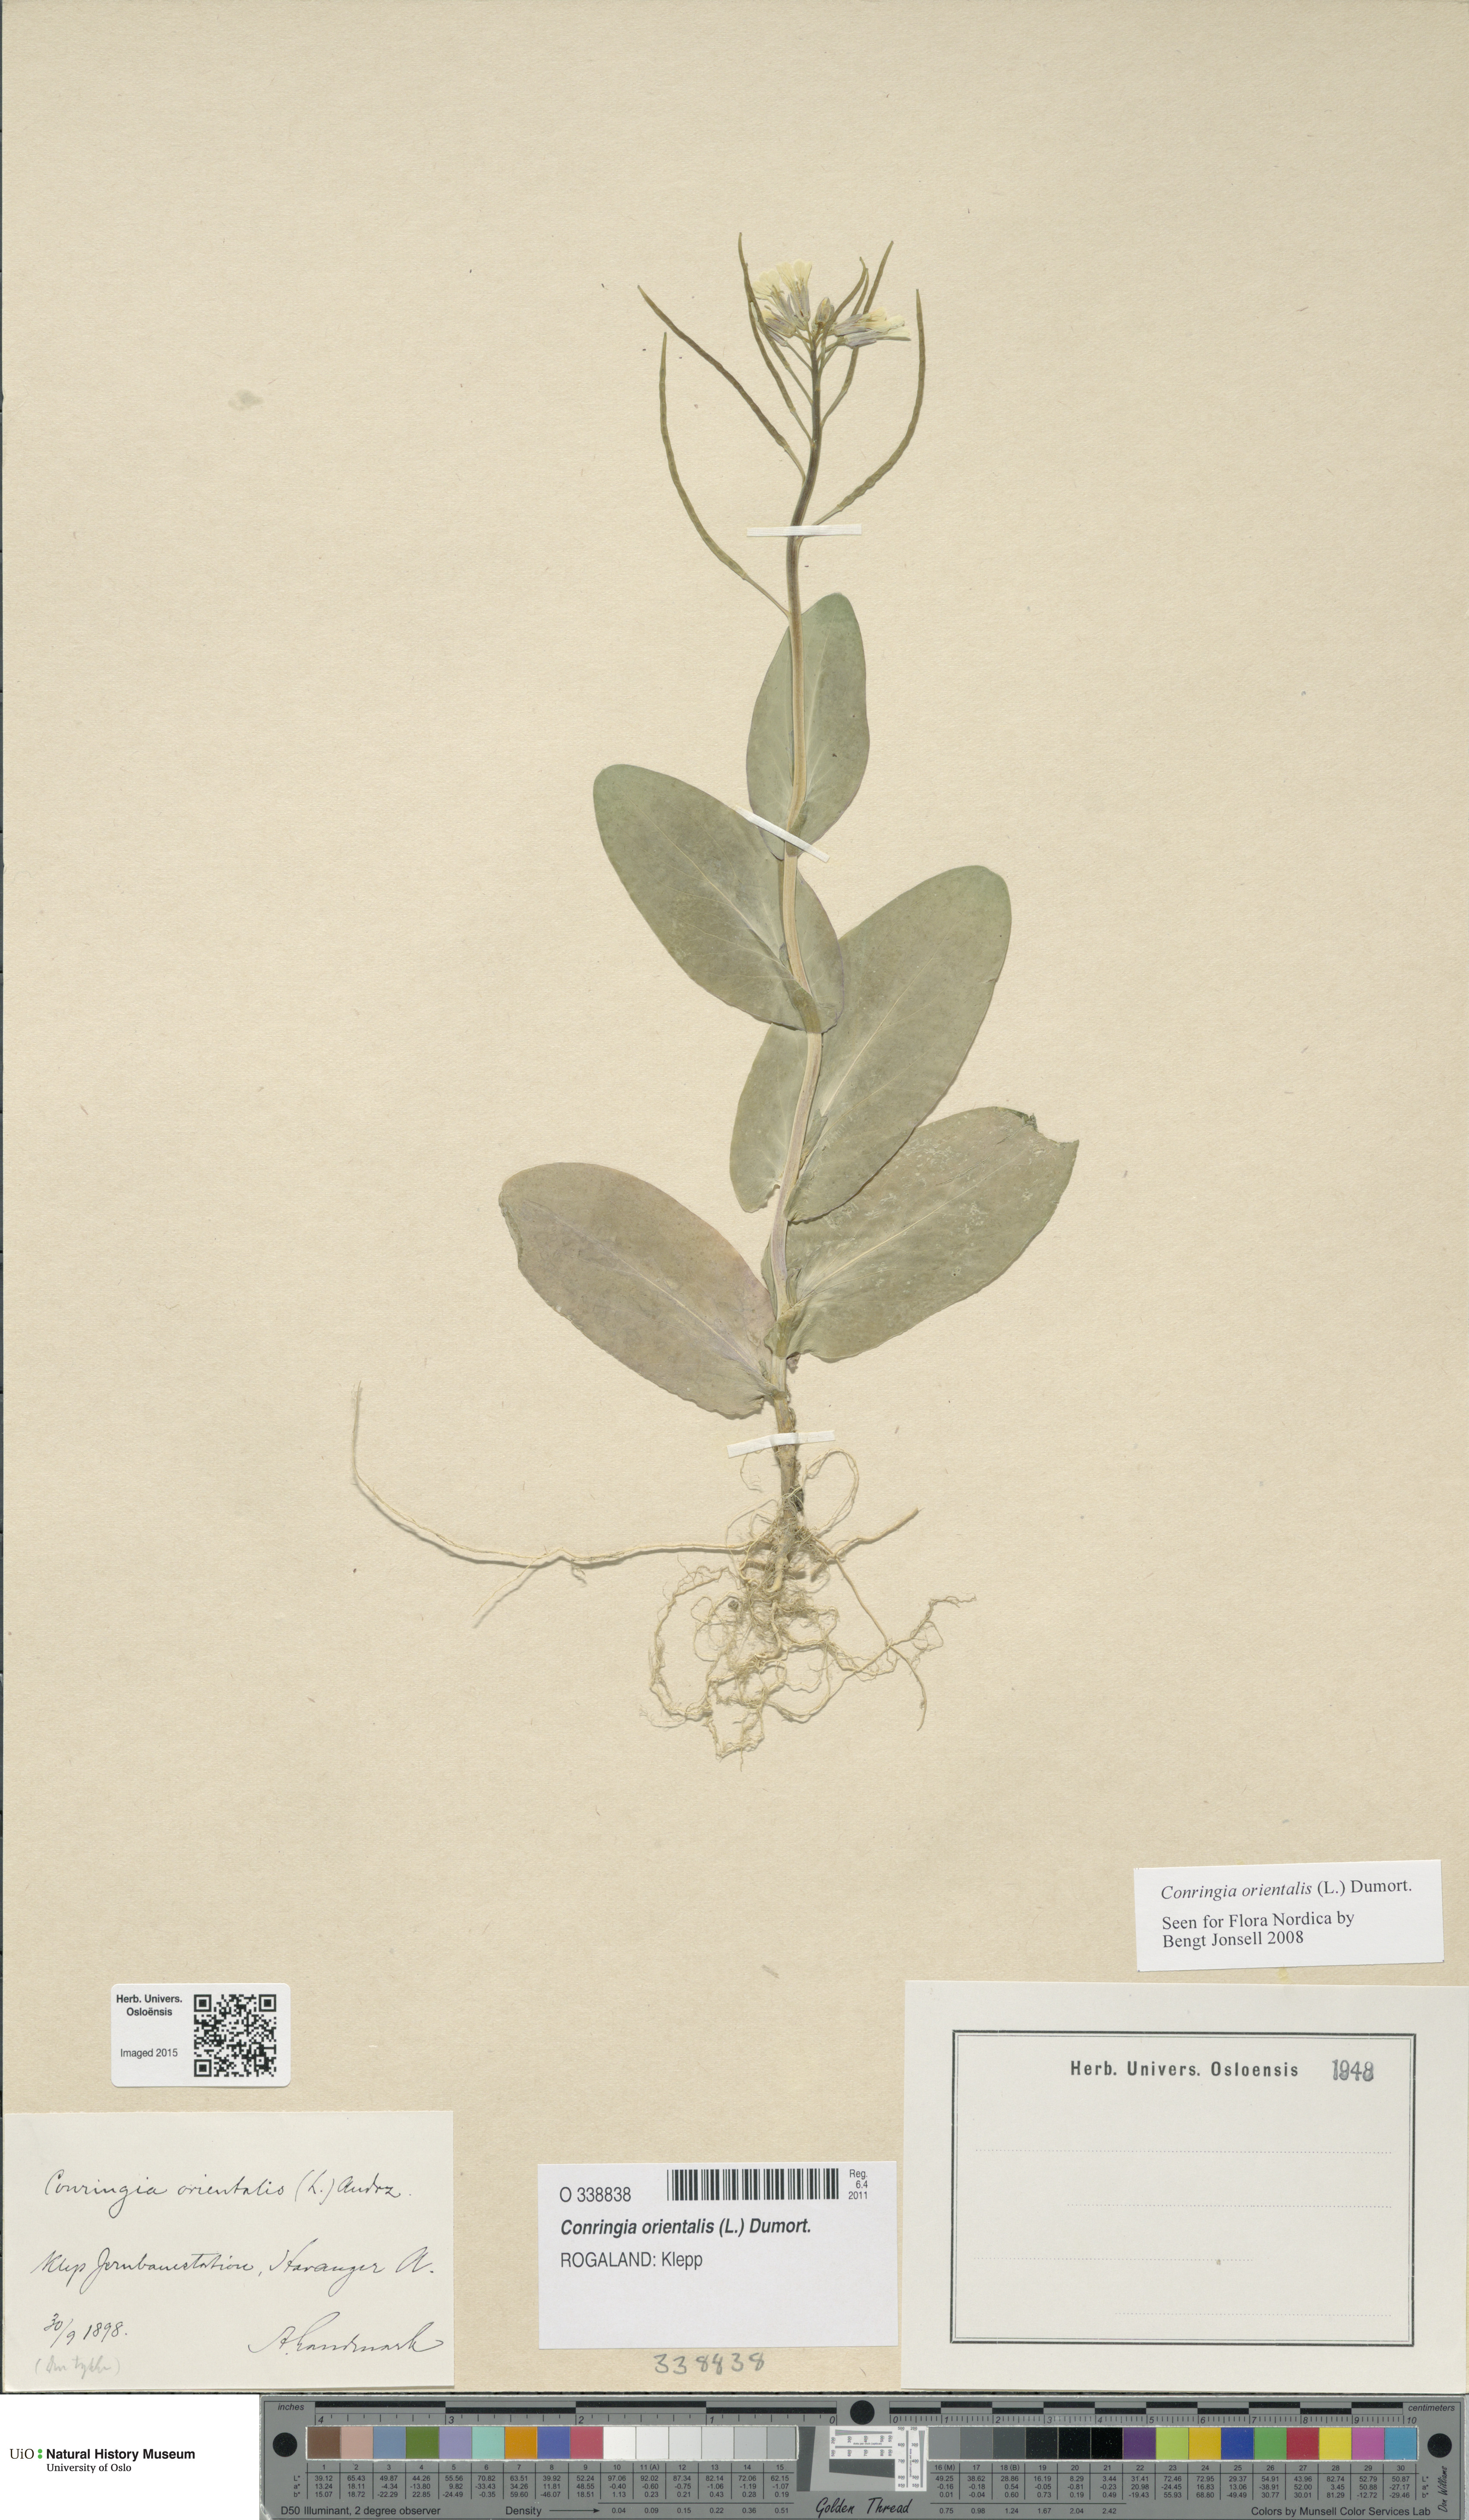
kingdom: Plantae
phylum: Tracheophyta
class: Magnoliopsida
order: Brassicales
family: Brassicaceae
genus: Conringia
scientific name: Conringia orientalis
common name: Hare's ear mustard
